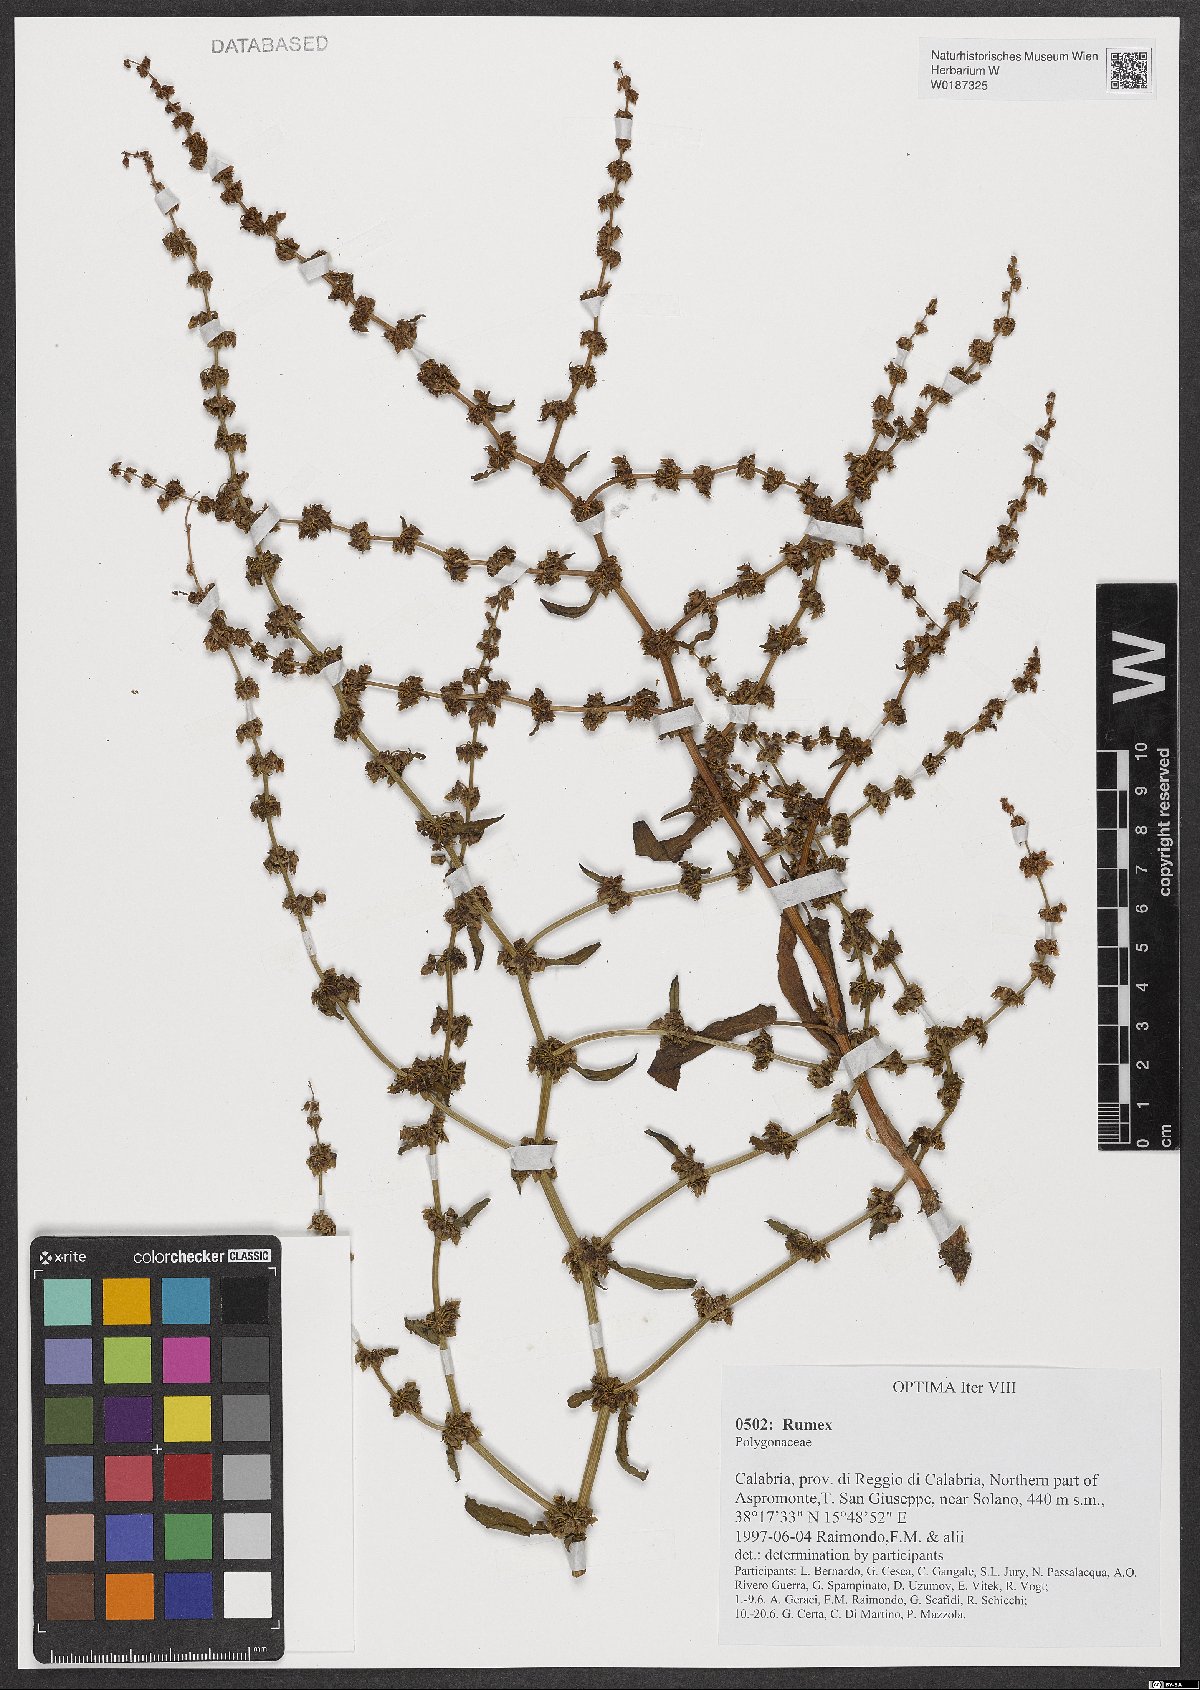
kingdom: Plantae
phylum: Tracheophyta
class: Magnoliopsida
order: Caryophyllales
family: Polygonaceae
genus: Rumex
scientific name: Rumex
